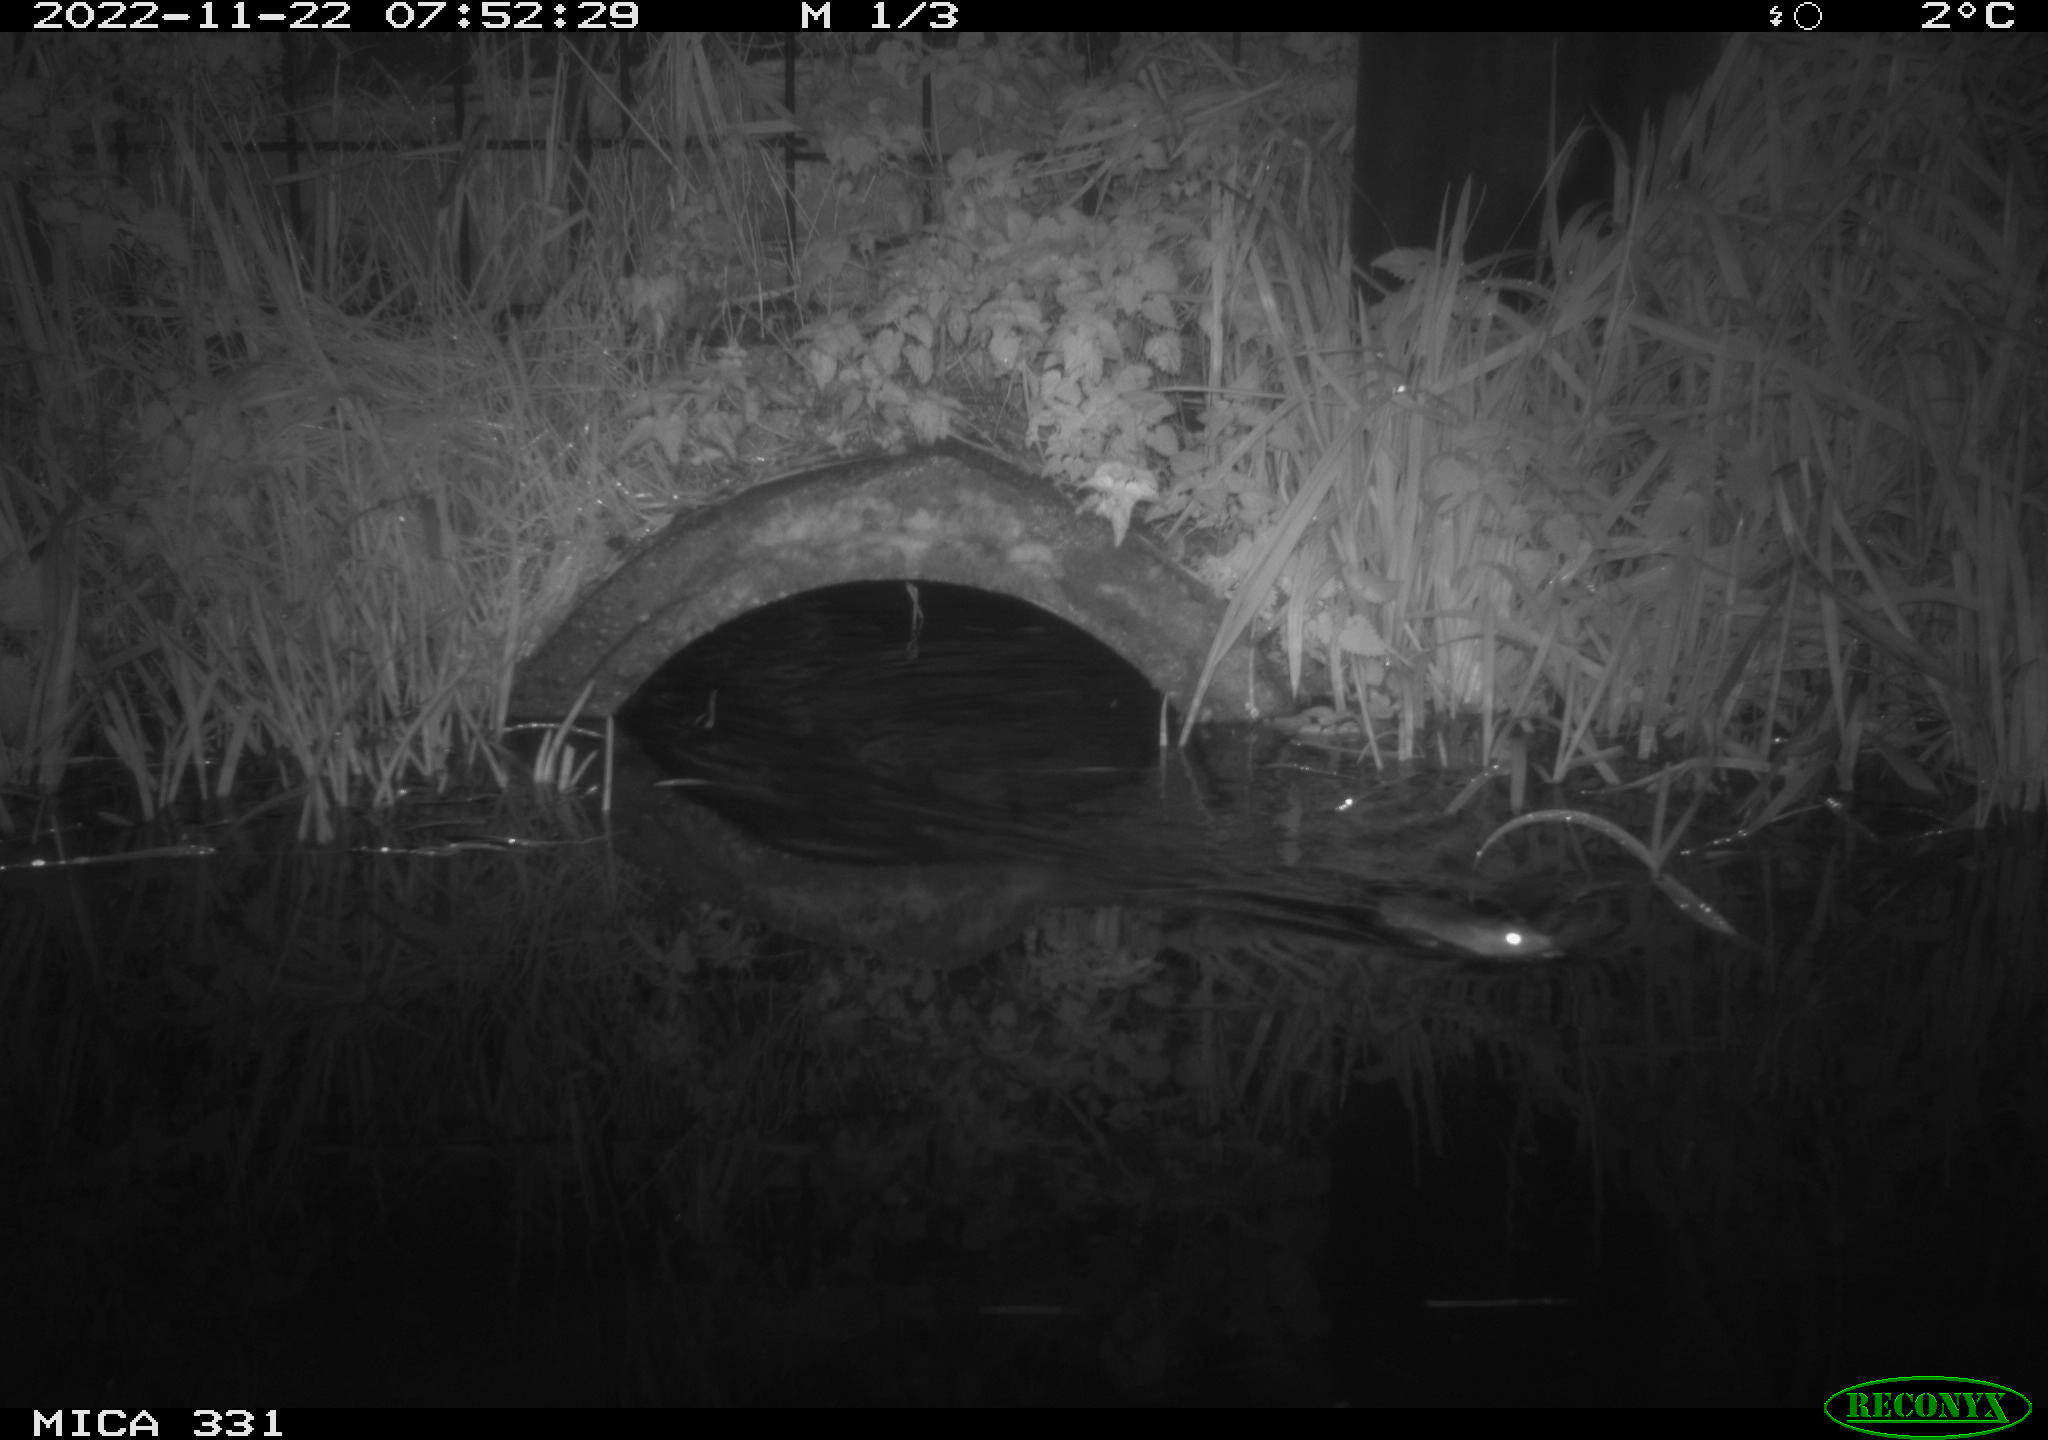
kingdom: Animalia
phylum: Chordata
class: Mammalia
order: Rodentia
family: Muridae
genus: Rattus
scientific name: Rattus norvegicus
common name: Brown rat
